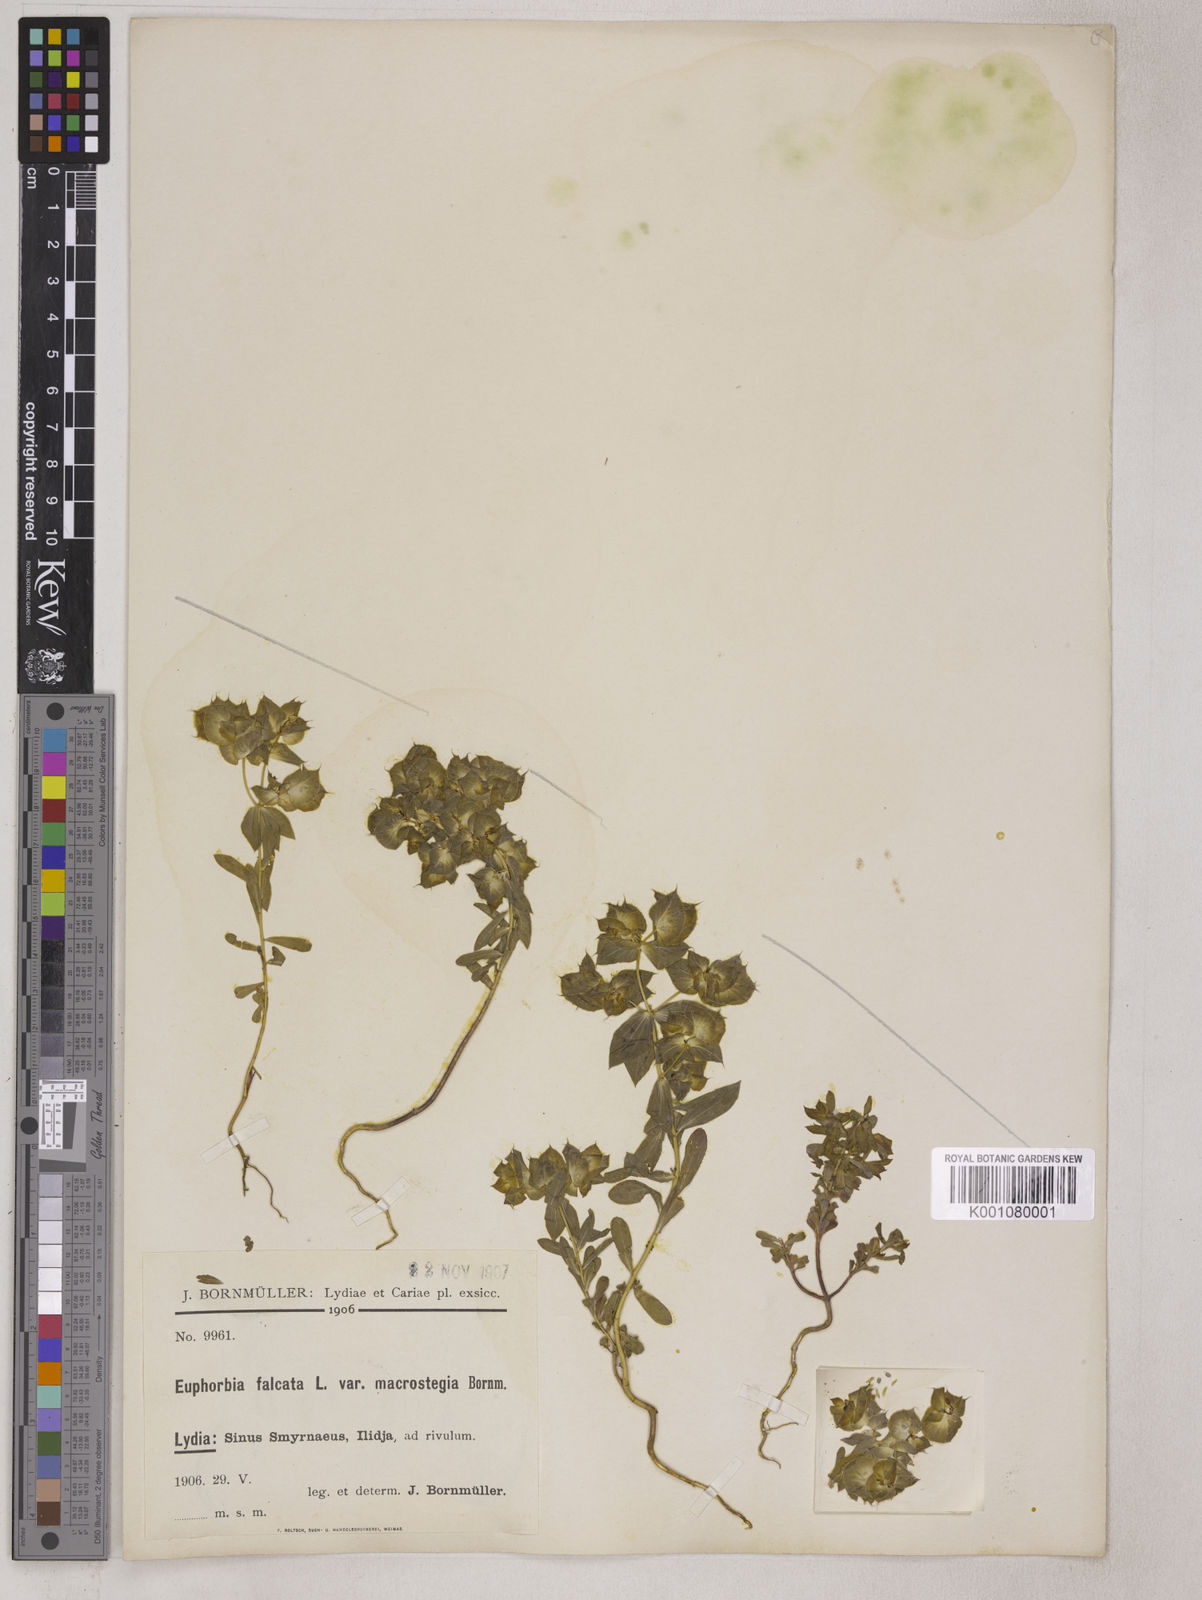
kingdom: Plantae
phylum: Tracheophyta
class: Magnoliopsida
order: Malpighiales
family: Euphorbiaceae
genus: Euphorbia
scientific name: Euphorbia falcata
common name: Sickle spurge
